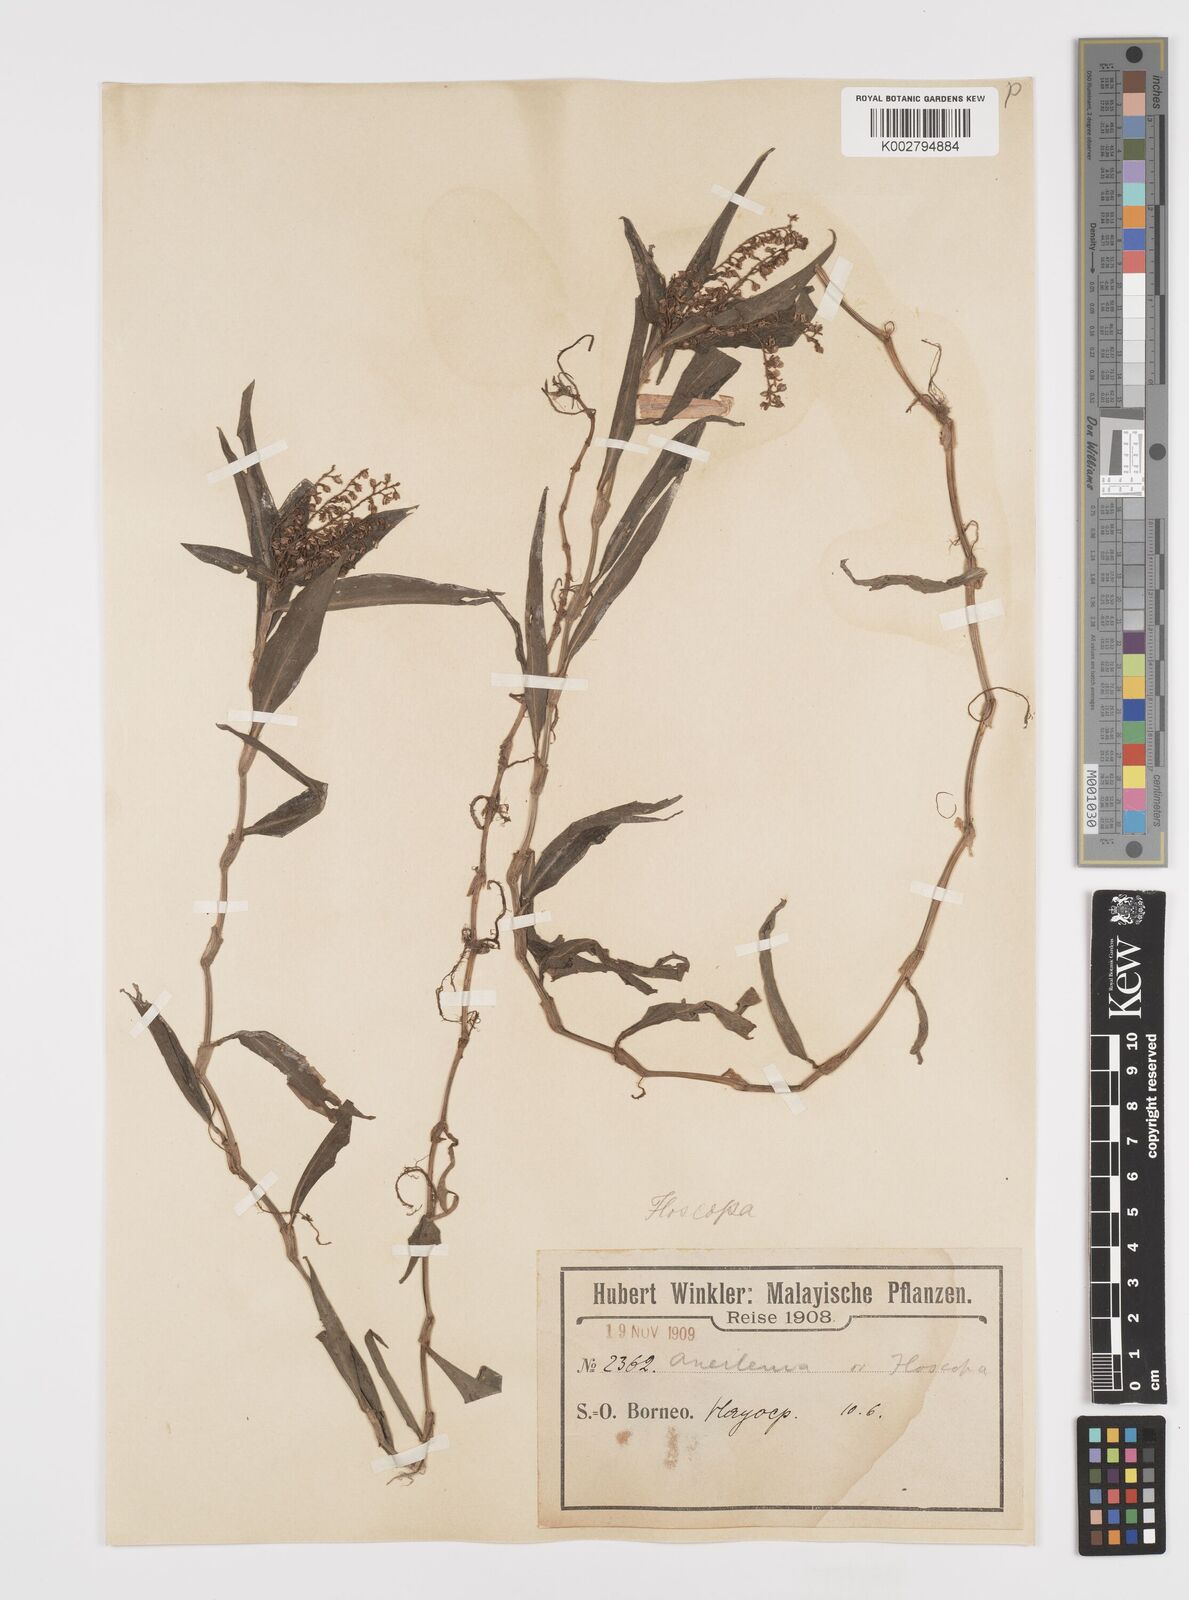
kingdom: Plantae
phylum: Tracheophyta
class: Liliopsida
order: Commelinales
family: Commelinaceae
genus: Floscopa
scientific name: Floscopa scandens
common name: Climbing flower cup
